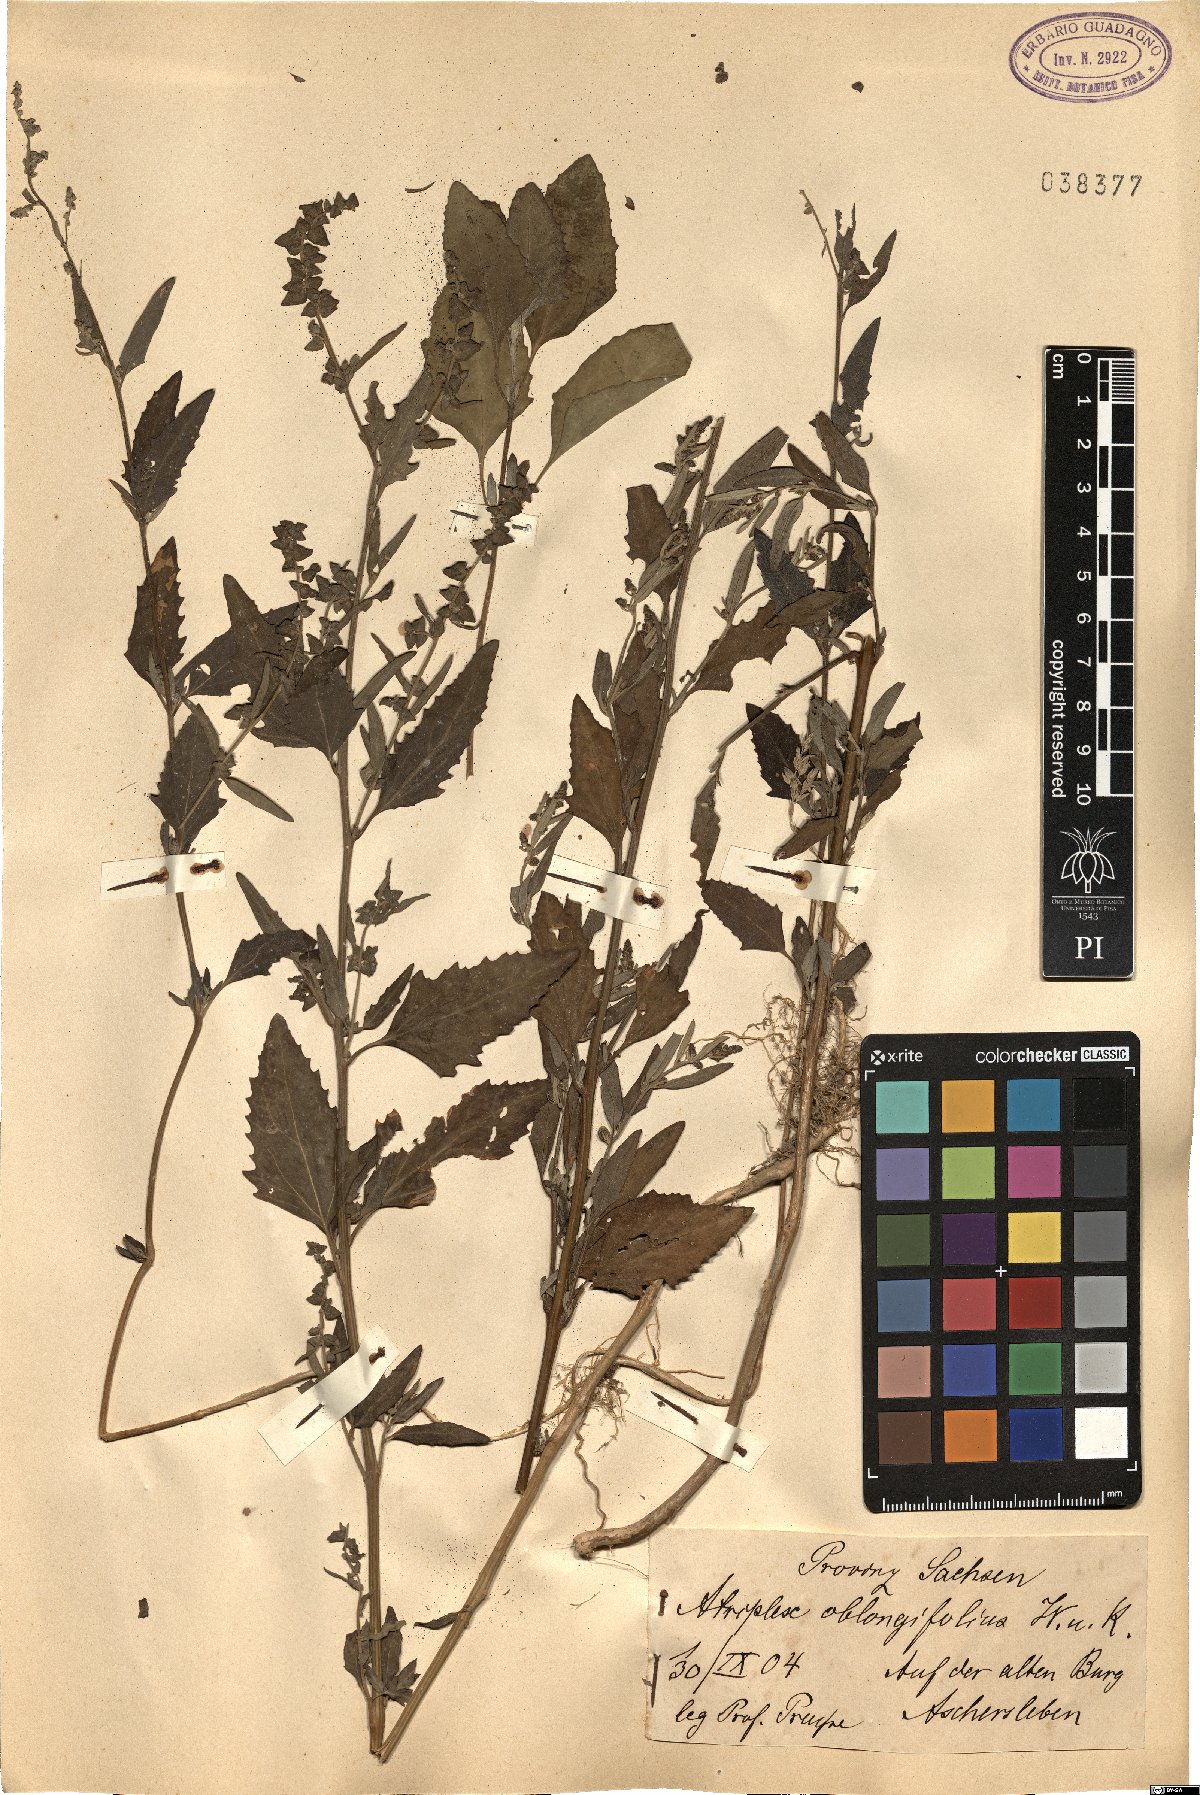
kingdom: Plantae
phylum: Tracheophyta
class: Magnoliopsida
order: Caryophyllales
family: Amaranthaceae
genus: Atriplex
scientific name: Atriplex oblongifolia
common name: Oblongleaf orache
